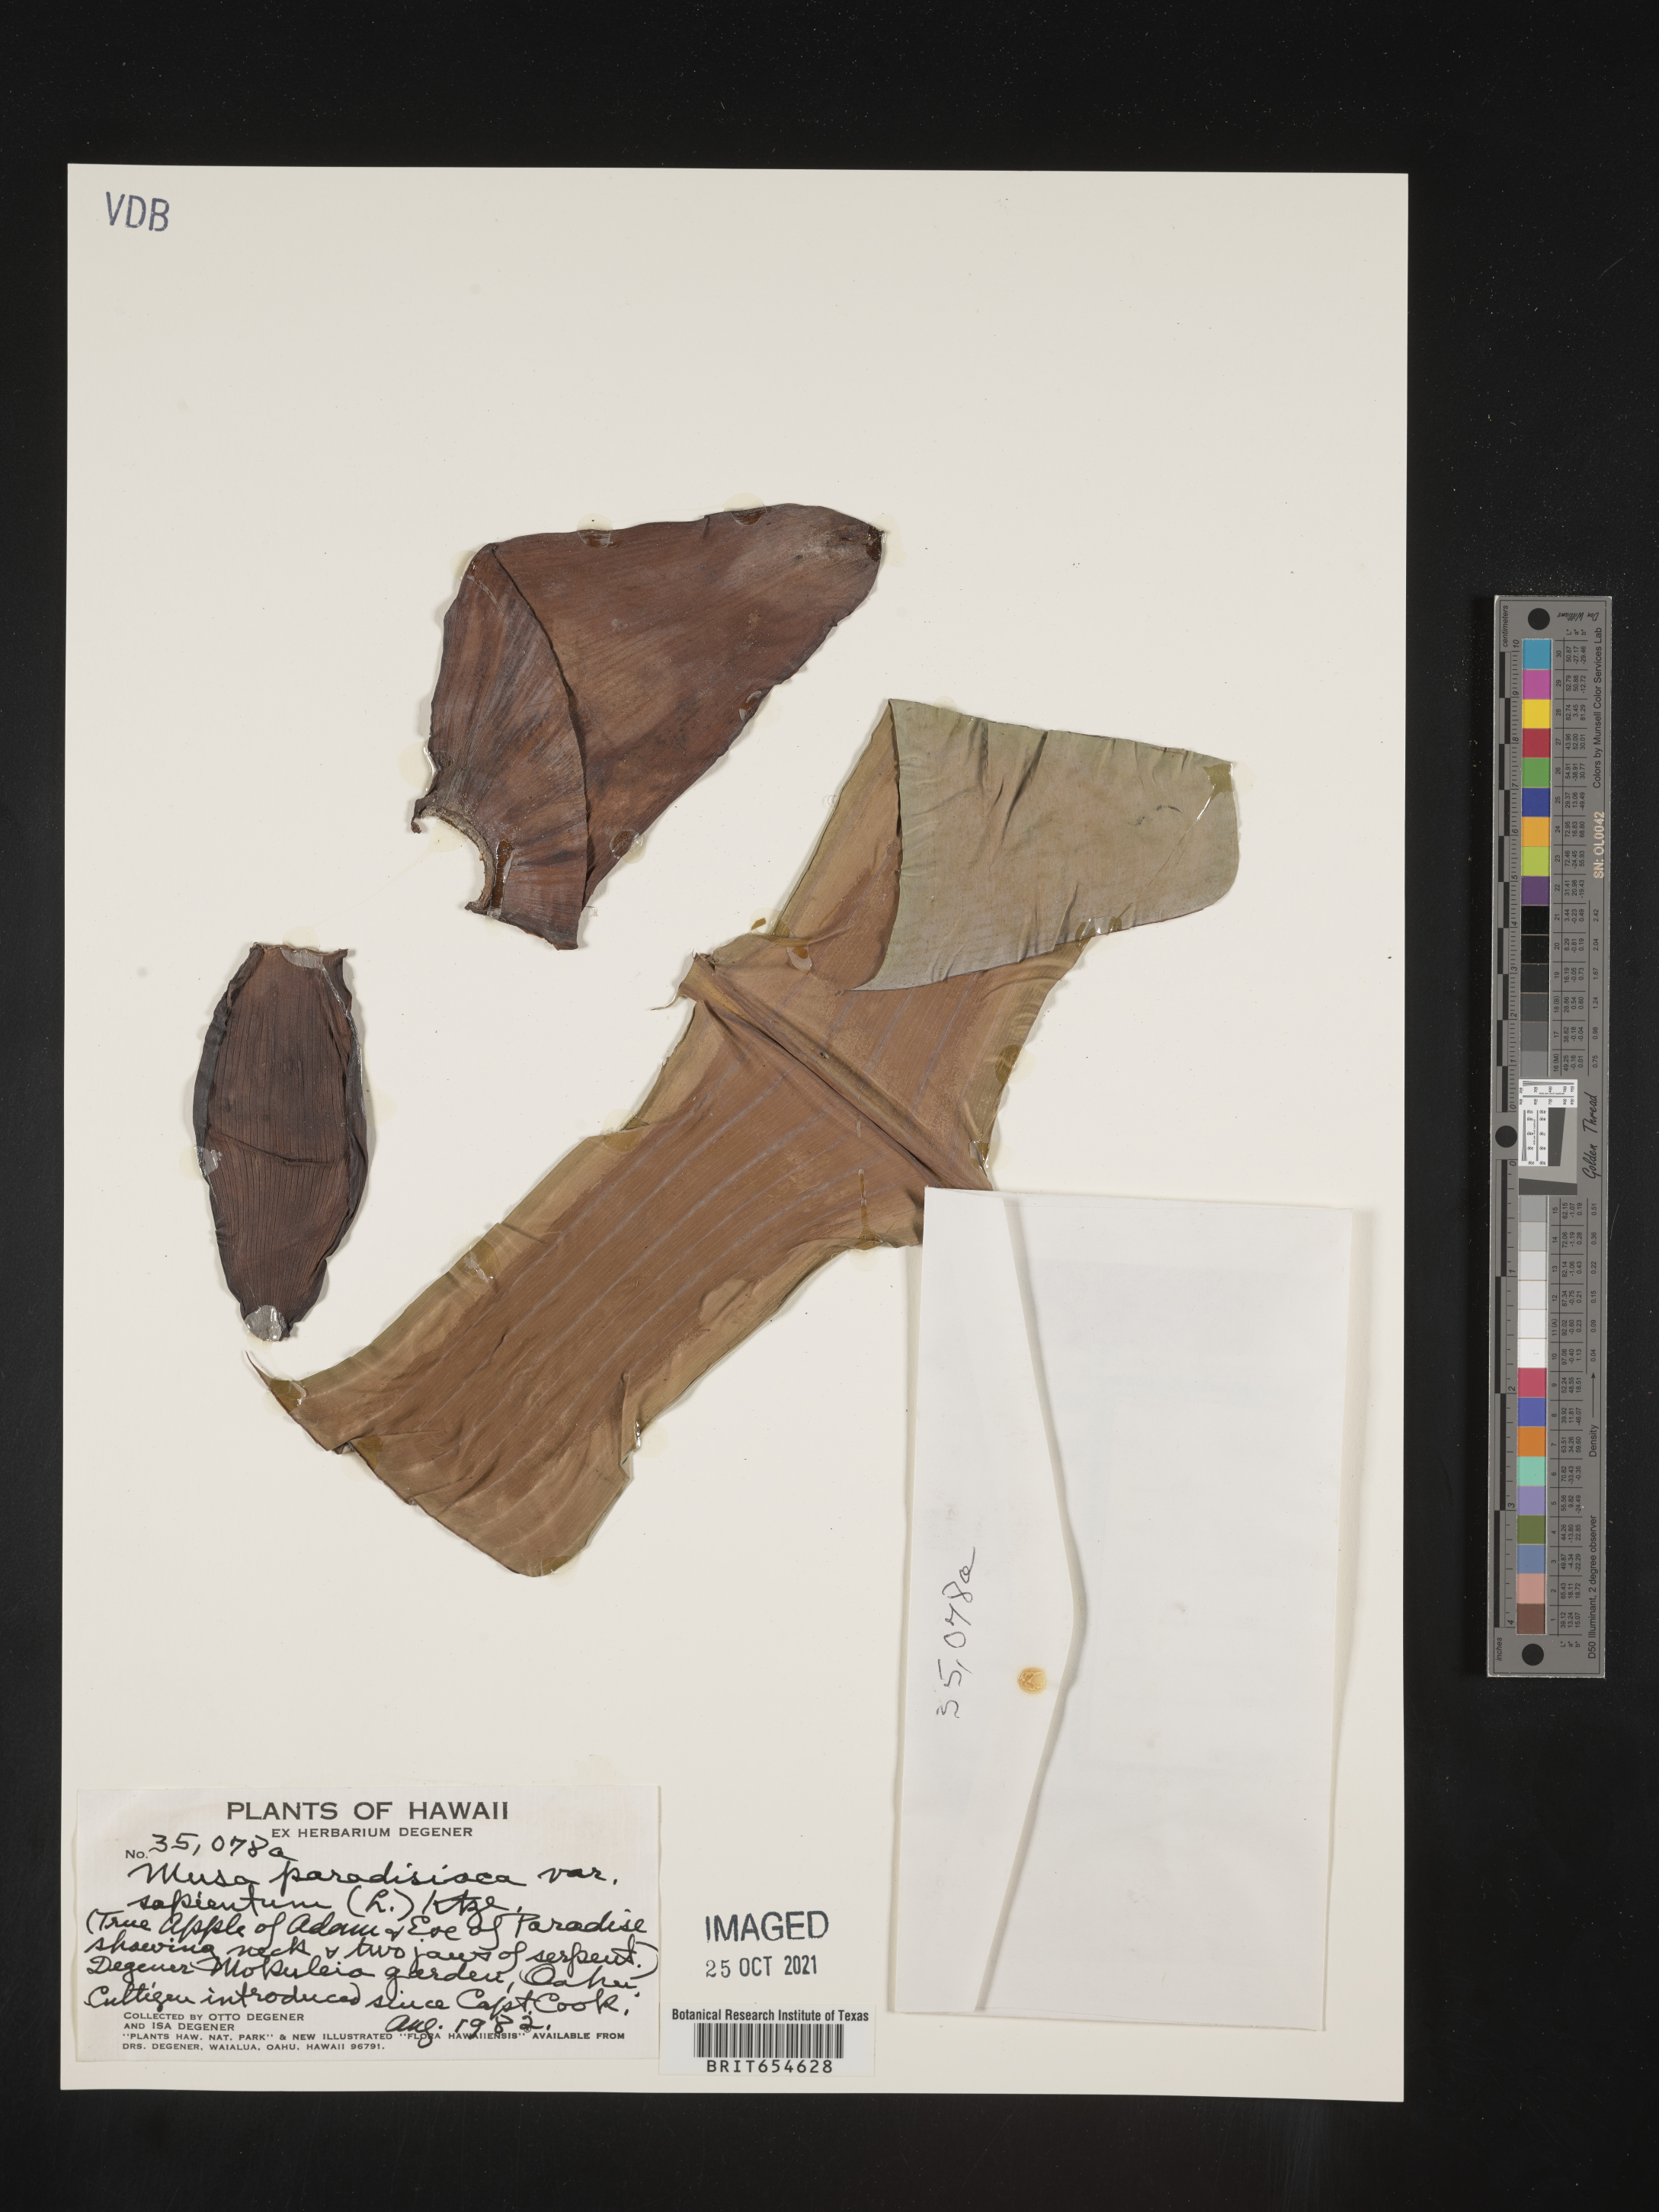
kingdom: Plantae
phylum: Tracheophyta
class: Liliopsida
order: Zingiberales
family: Musaceae
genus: Musa
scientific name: Musa
